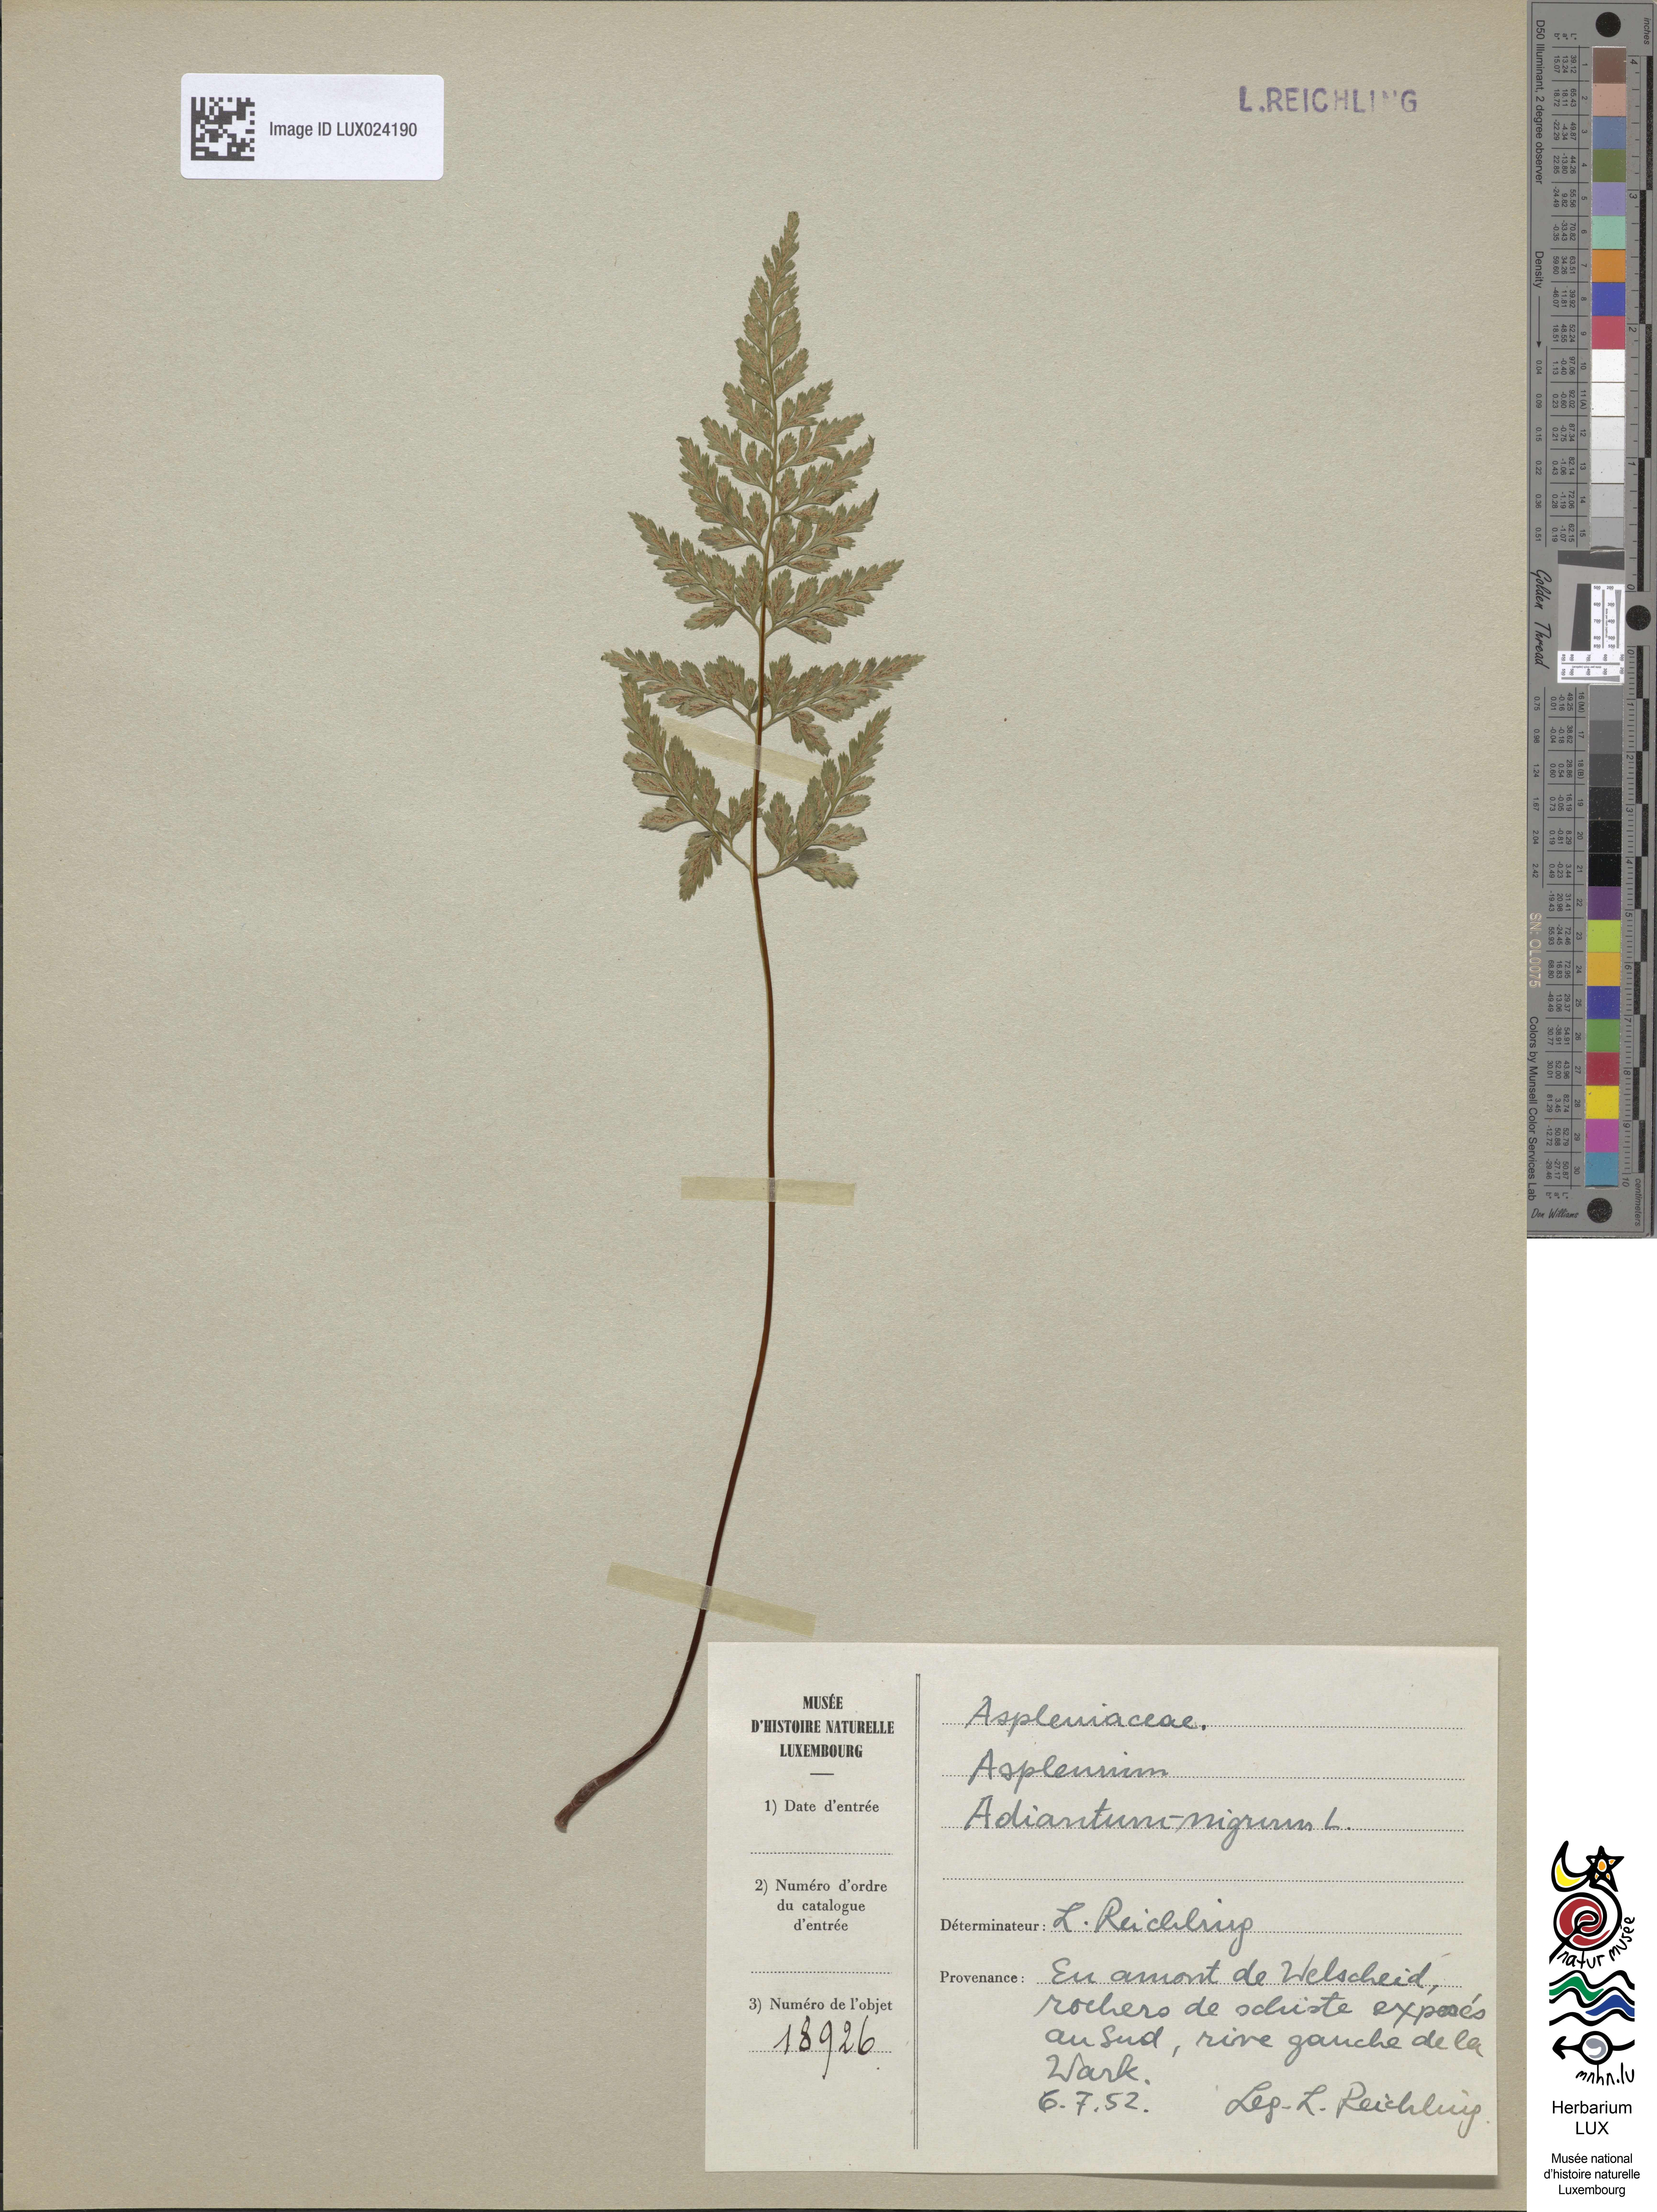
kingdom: Plantae
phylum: Tracheophyta
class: Polypodiopsida
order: Polypodiales
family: Aspleniaceae
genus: Asplenium
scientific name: Asplenium adiantum-nigrum
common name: Black spleenwort
